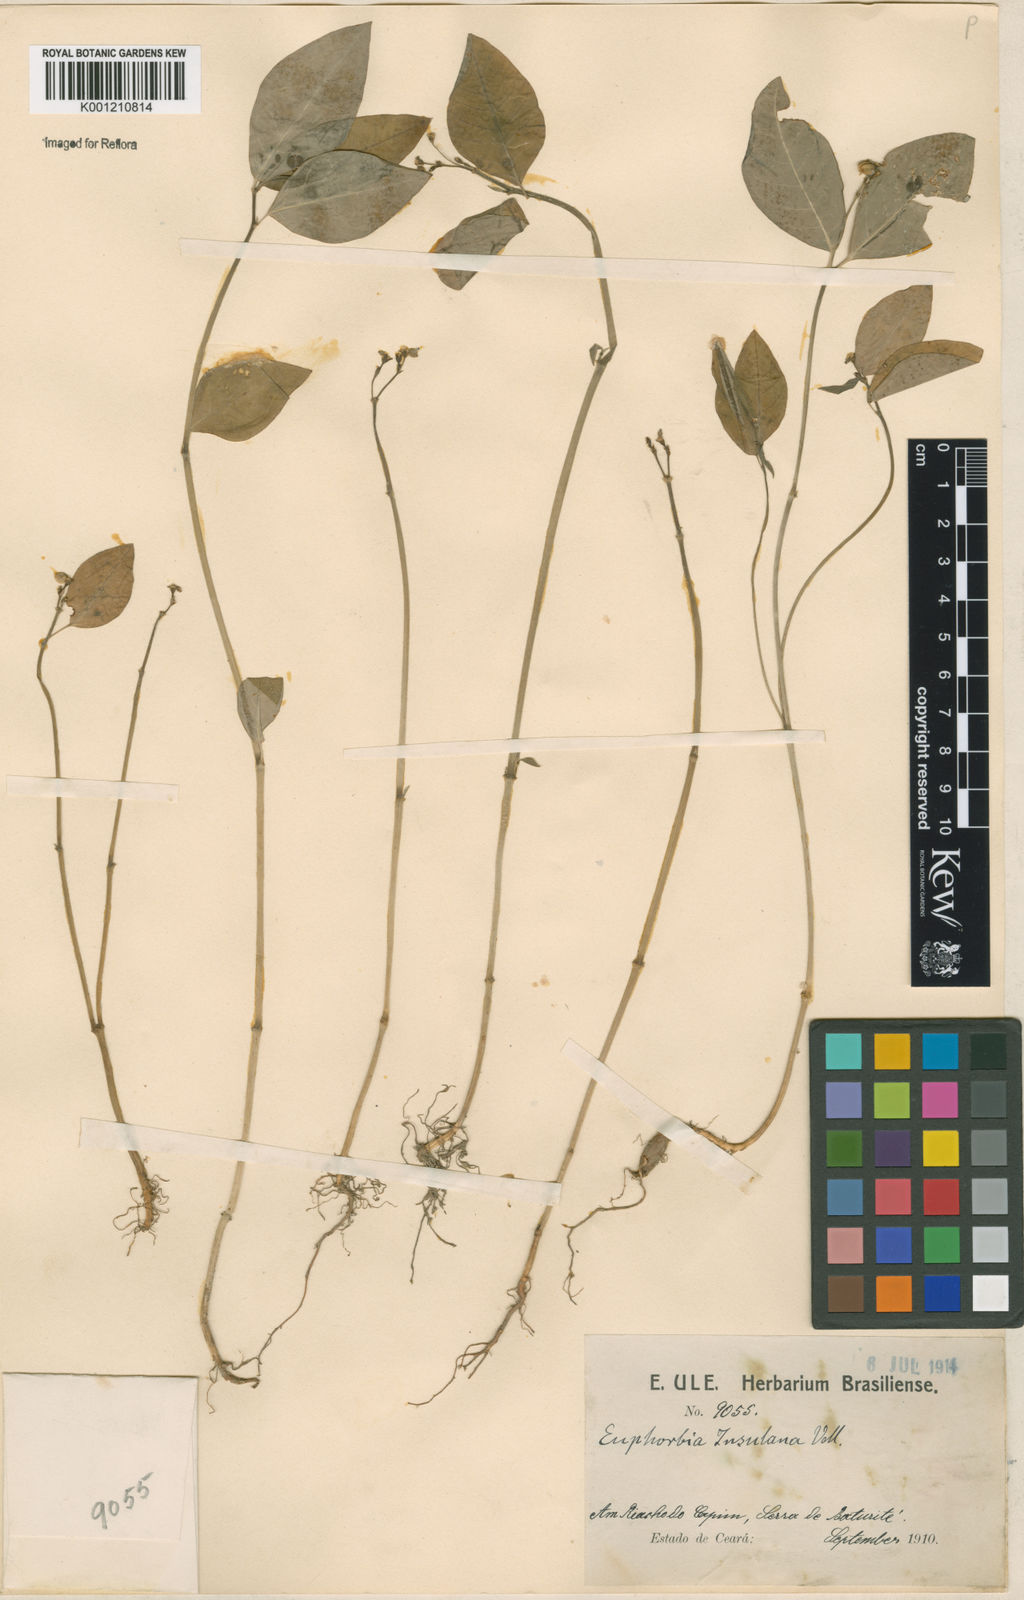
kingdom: Plantae
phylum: Tracheophyta
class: Magnoliopsida
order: Malpighiales
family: Euphorbiaceae
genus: Euphorbia
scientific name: Euphorbia insulana
